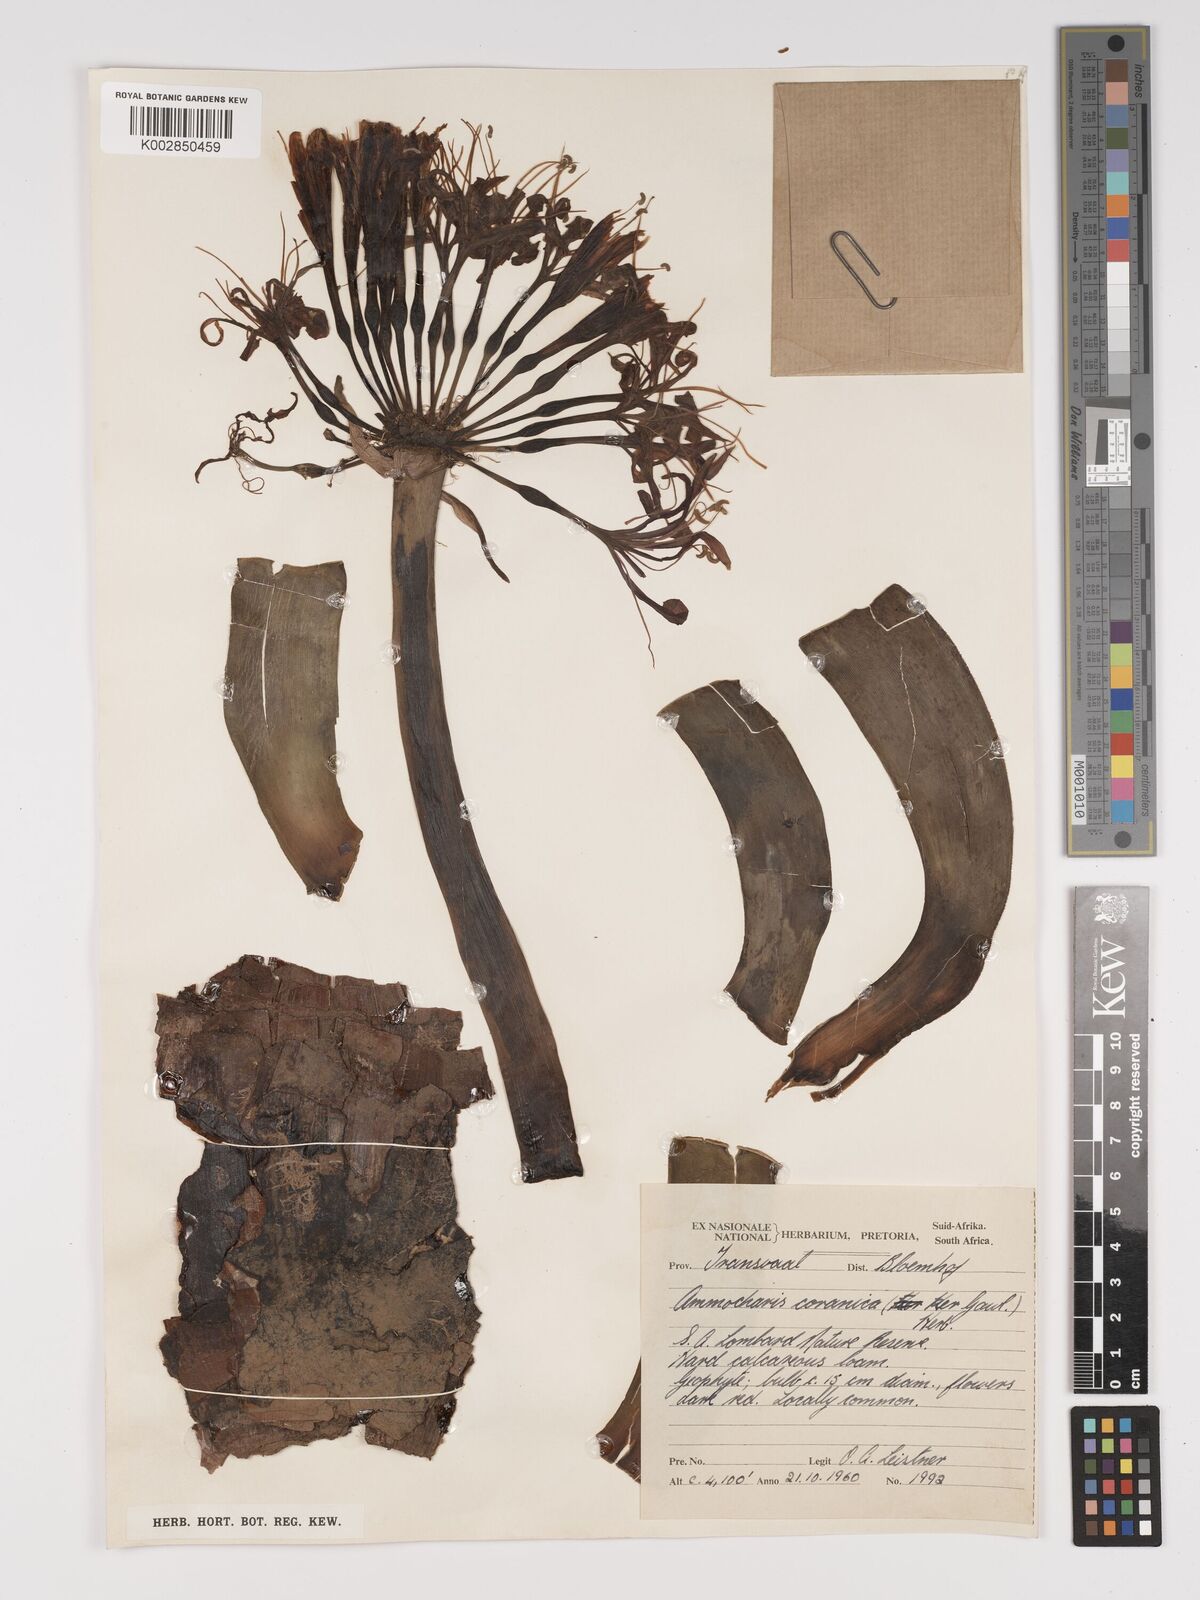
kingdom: Plantae
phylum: Tracheophyta
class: Liliopsida
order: Asparagales
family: Amaryllidaceae
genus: Ammocharis
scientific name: Ammocharis coranica
